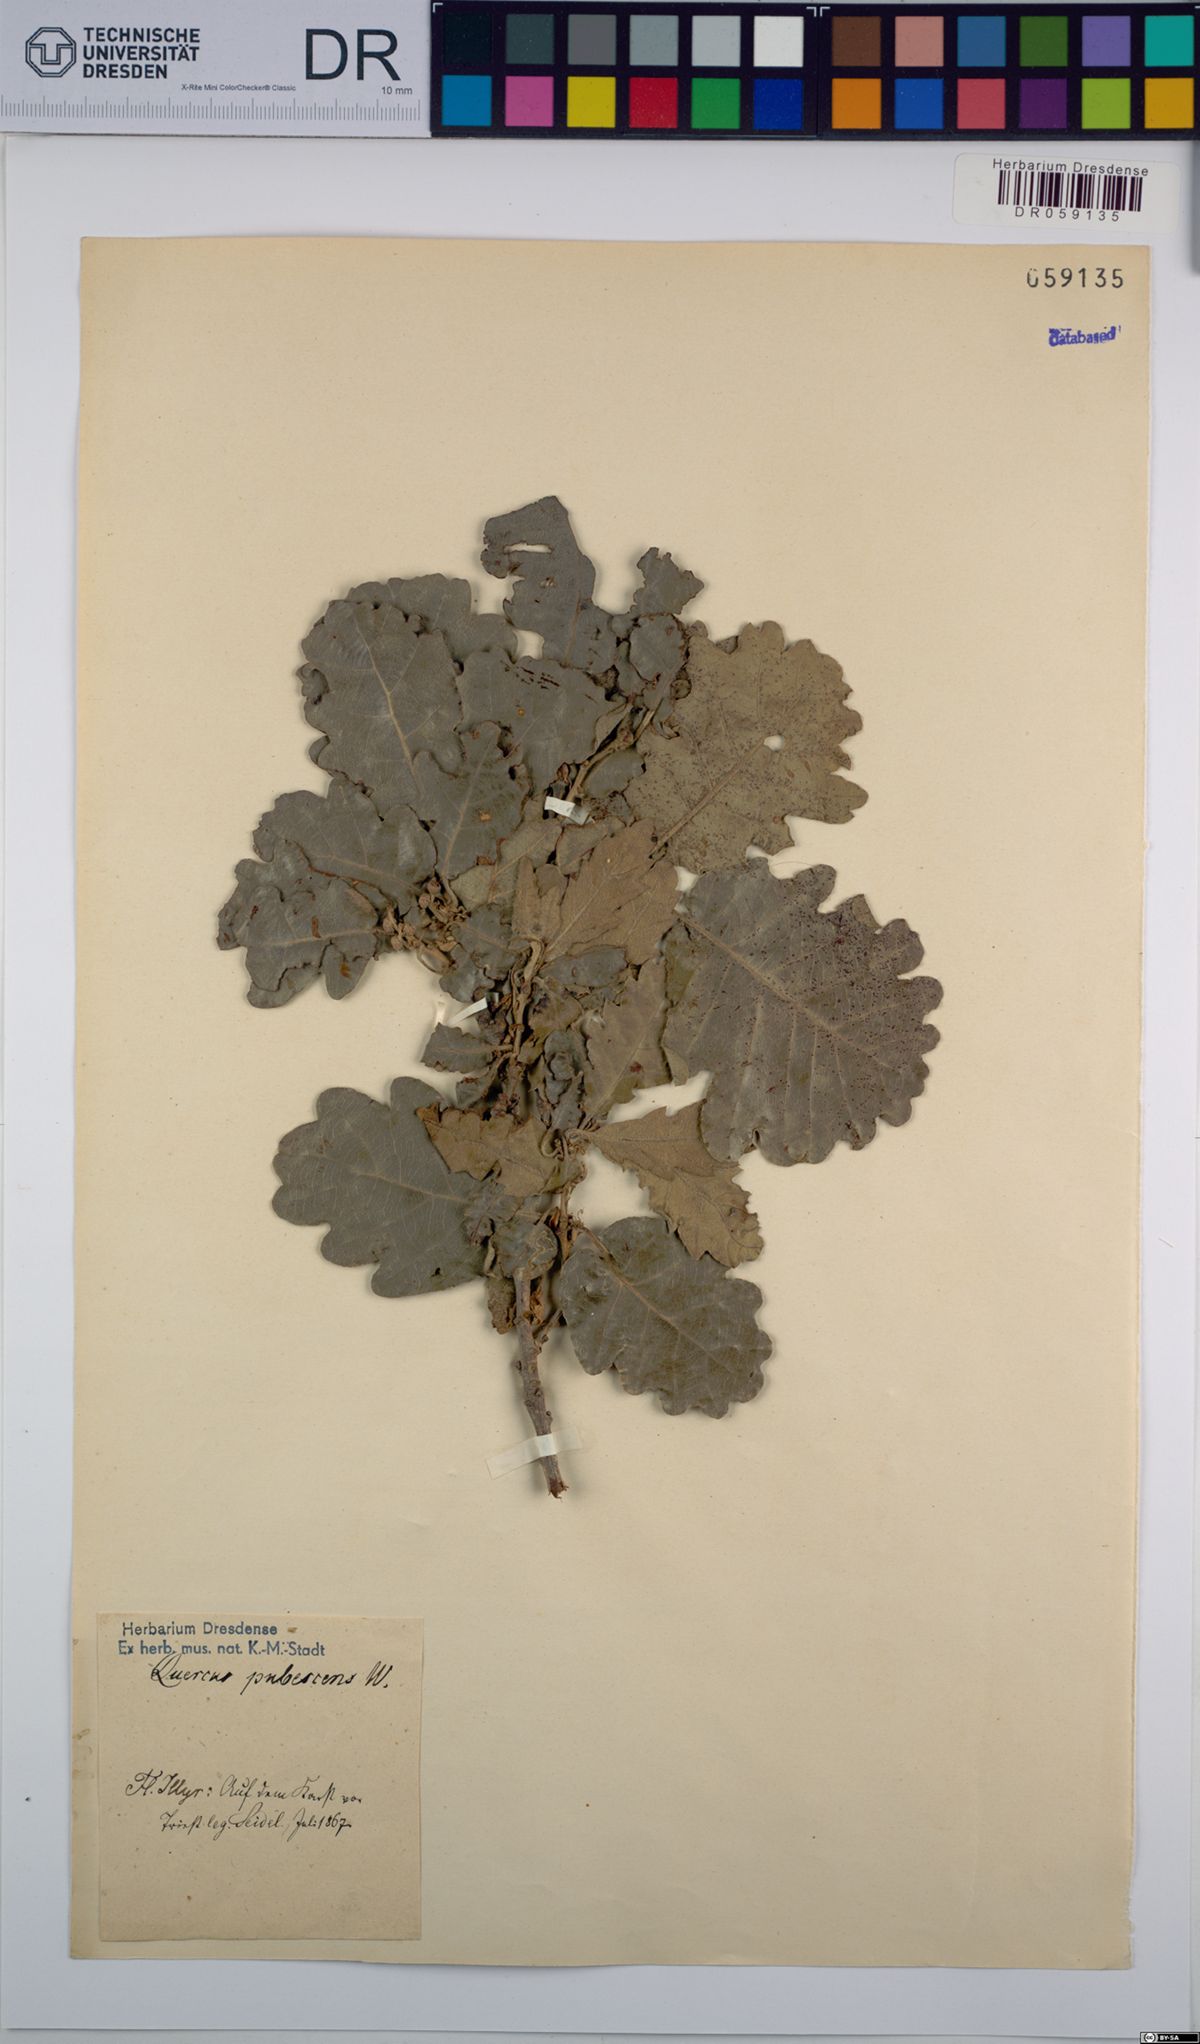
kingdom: Plantae
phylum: Tracheophyta
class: Magnoliopsida
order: Fagales
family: Fagaceae
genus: Quercus
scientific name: Quercus pubescens
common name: Downy oak
